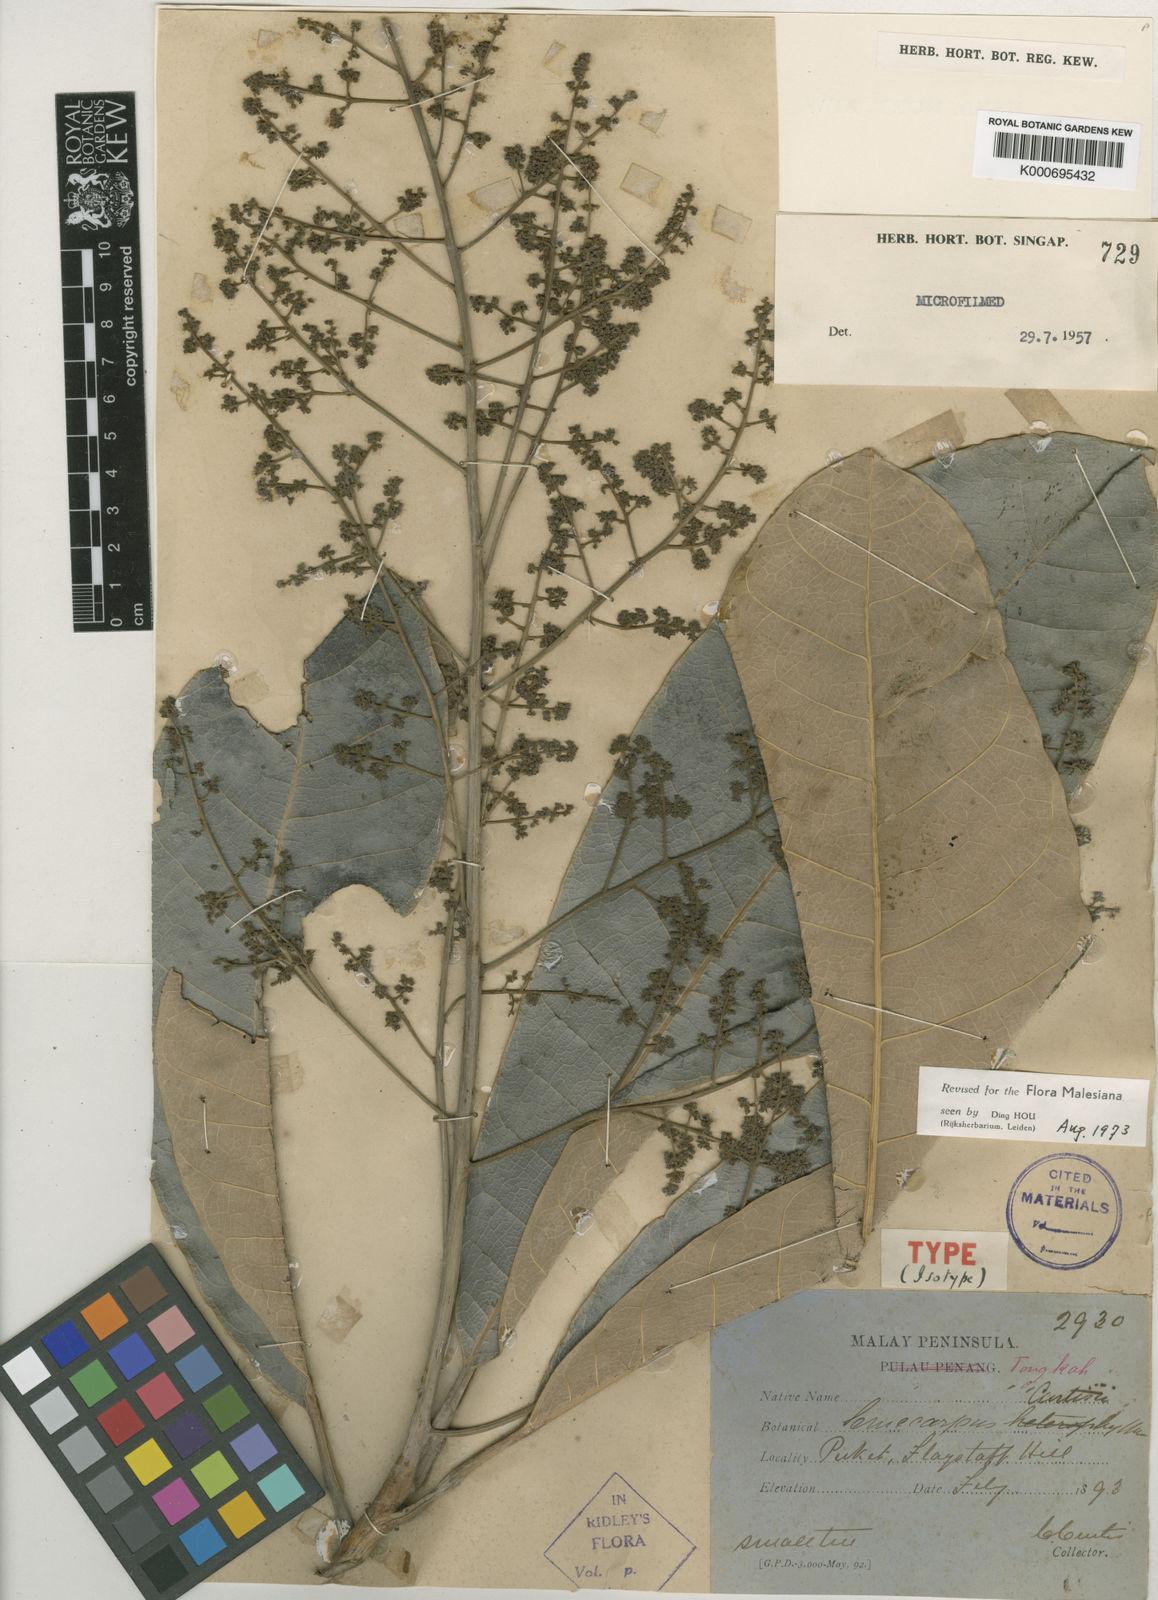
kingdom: Plantae
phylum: Tracheophyta
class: Magnoliopsida
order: Sapindales
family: Anacardiaceae
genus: Semecarpus
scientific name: Semecarpus curtisii
